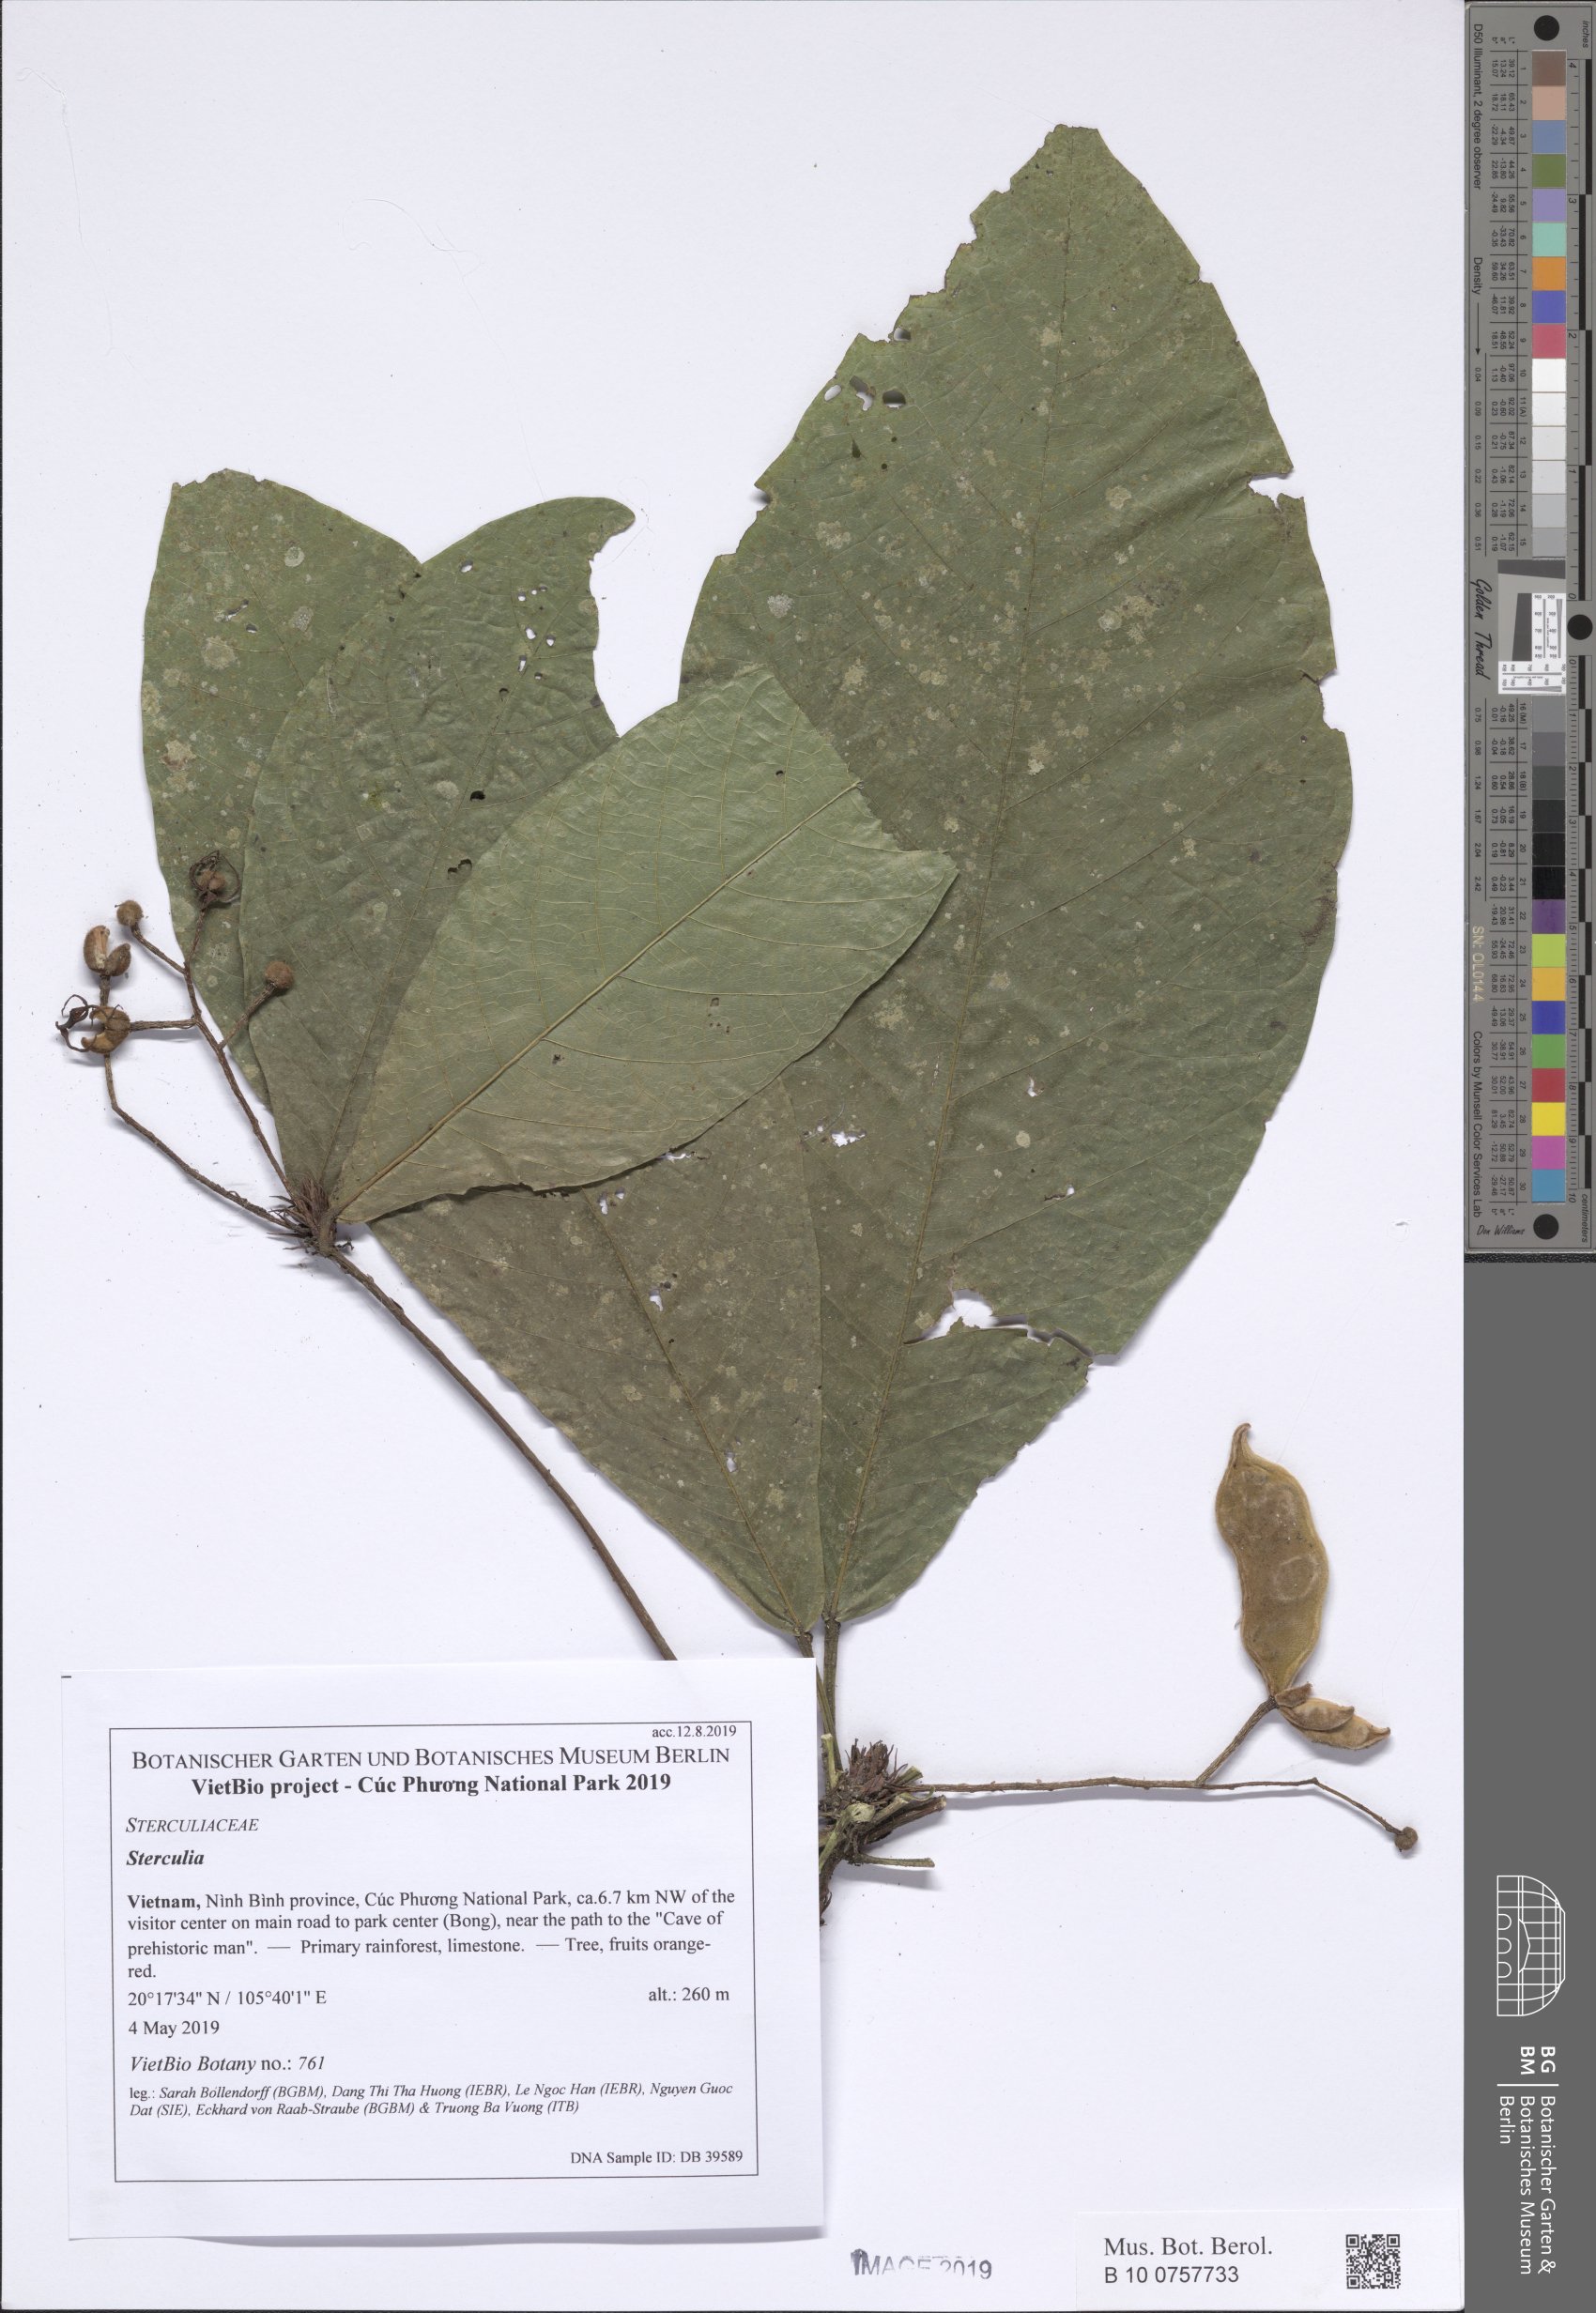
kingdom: Plantae
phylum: Tracheophyta
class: Magnoliopsida
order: Malvales
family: Malvaceae
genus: Sterculia
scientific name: Sterculia
